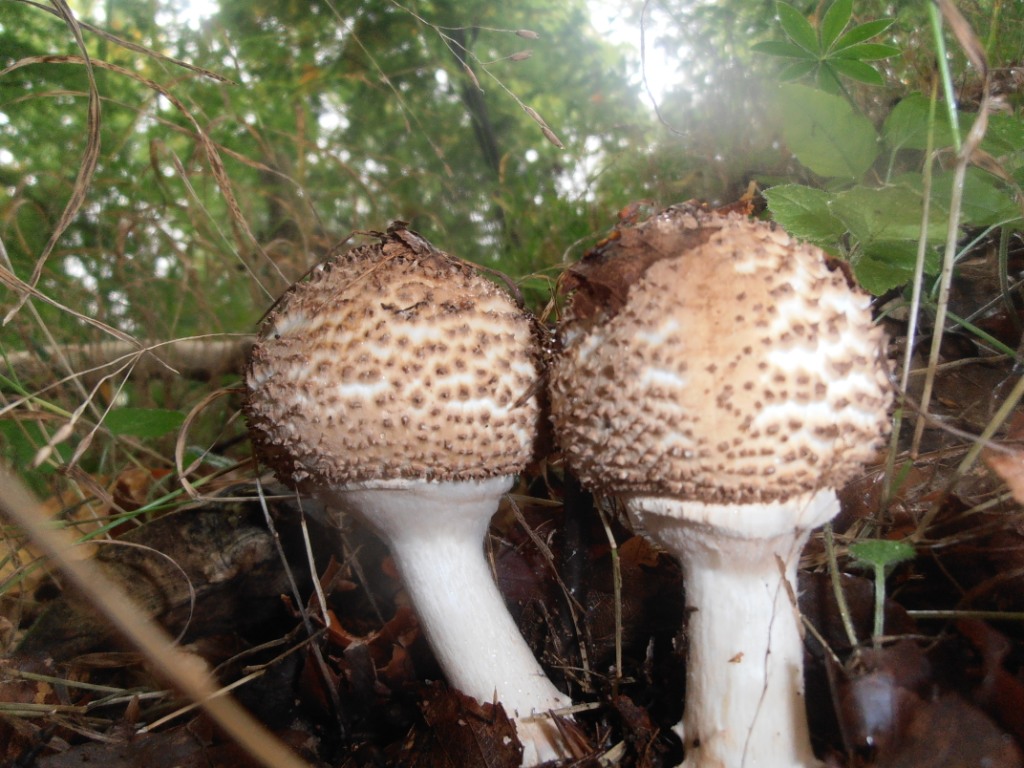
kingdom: Fungi
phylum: Basidiomycota
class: Agaricomycetes
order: Agaricales
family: Agaricaceae
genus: Echinoderma
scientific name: Echinoderma asperum
